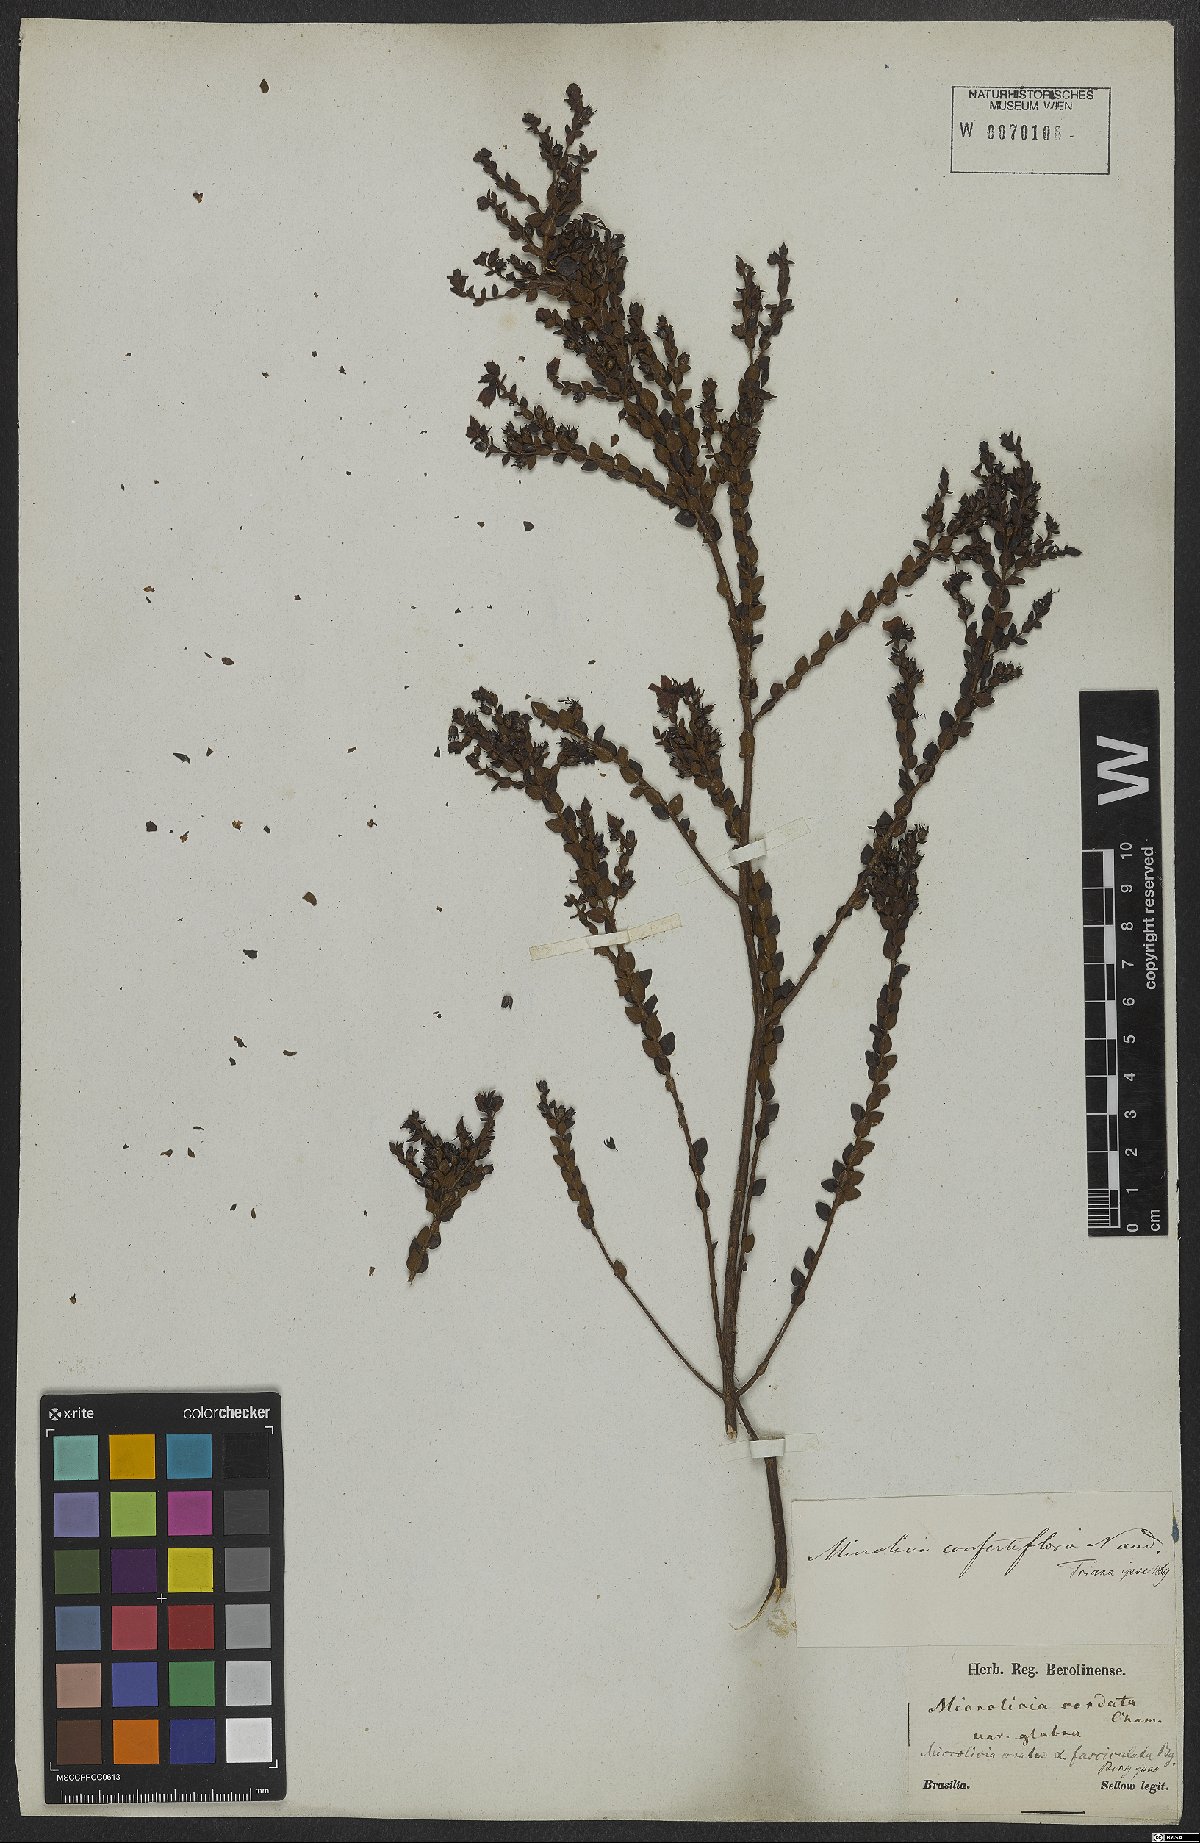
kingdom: Plantae
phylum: Tracheophyta
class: Magnoliopsida
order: Myrtales
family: Melastomataceae
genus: Microlicia
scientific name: Microlicia confertiflora
